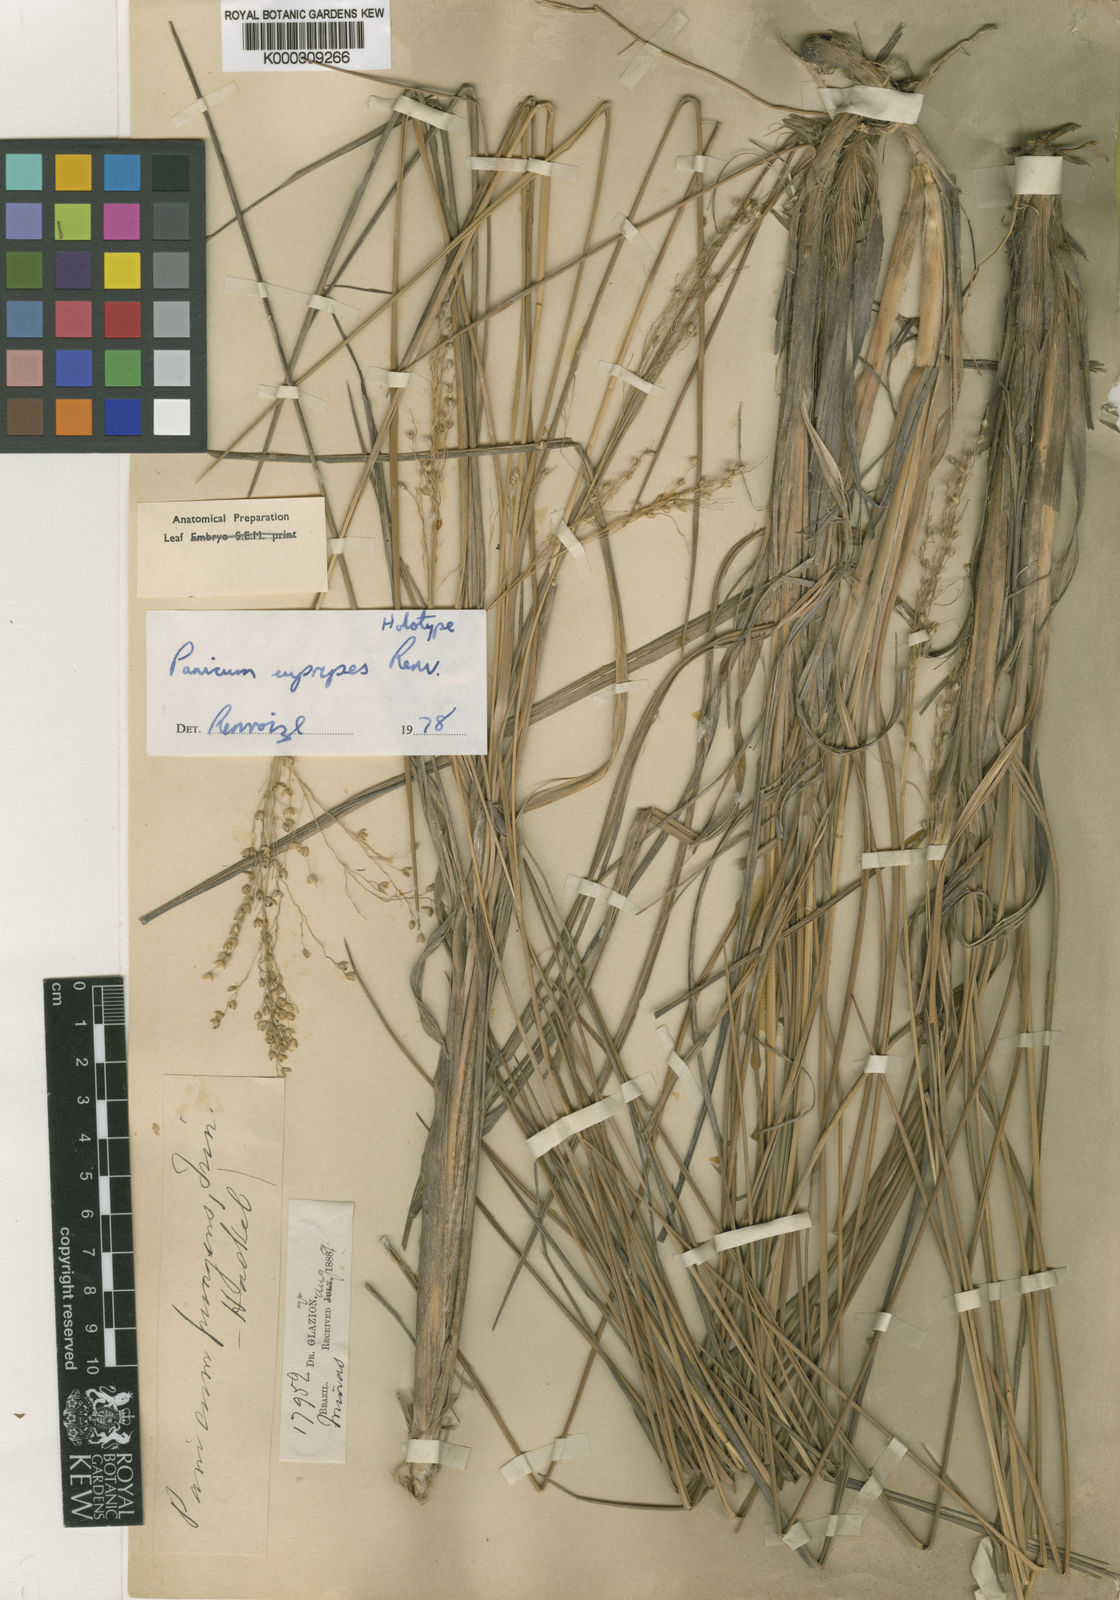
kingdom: Plantae
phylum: Tracheophyta
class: Liliopsida
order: Poales
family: Poaceae
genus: Apochloa
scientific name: Apochloa euprepes
